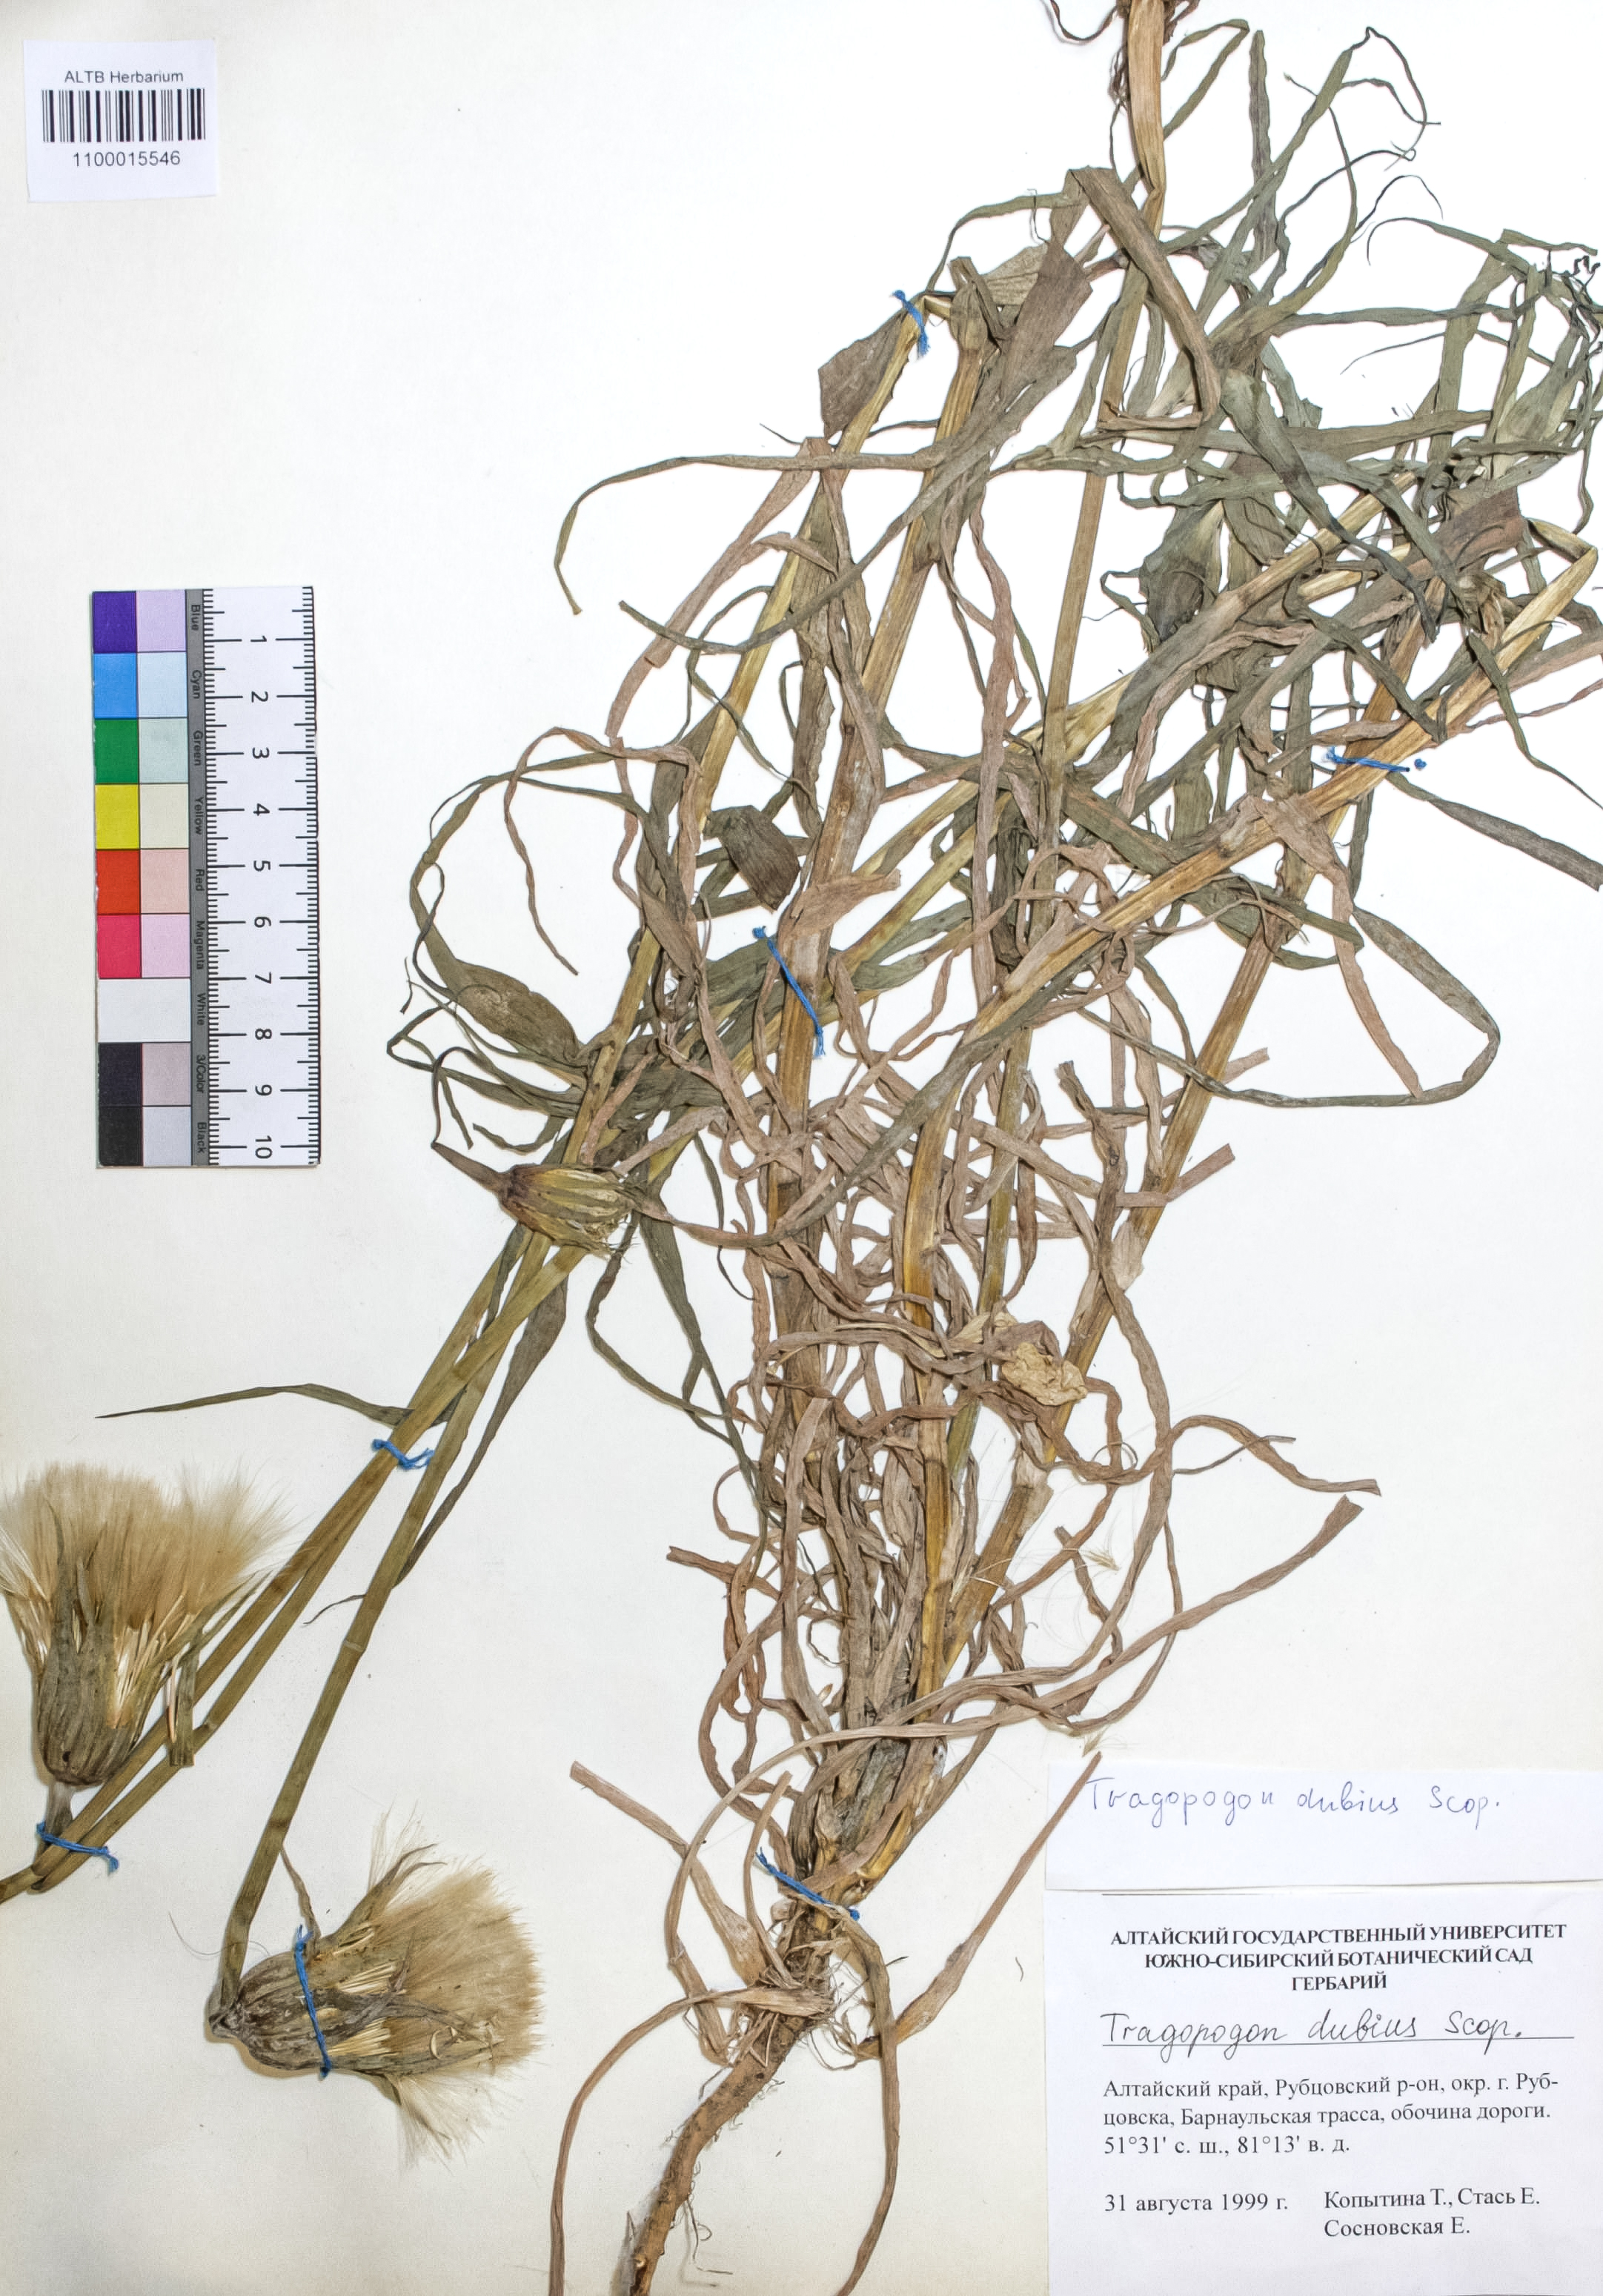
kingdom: Plantae
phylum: Tracheophyta
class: Magnoliopsida
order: Asterales
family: Asteraceae
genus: Tragopogon
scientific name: Tragopogon dubius
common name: Yellow salsify
